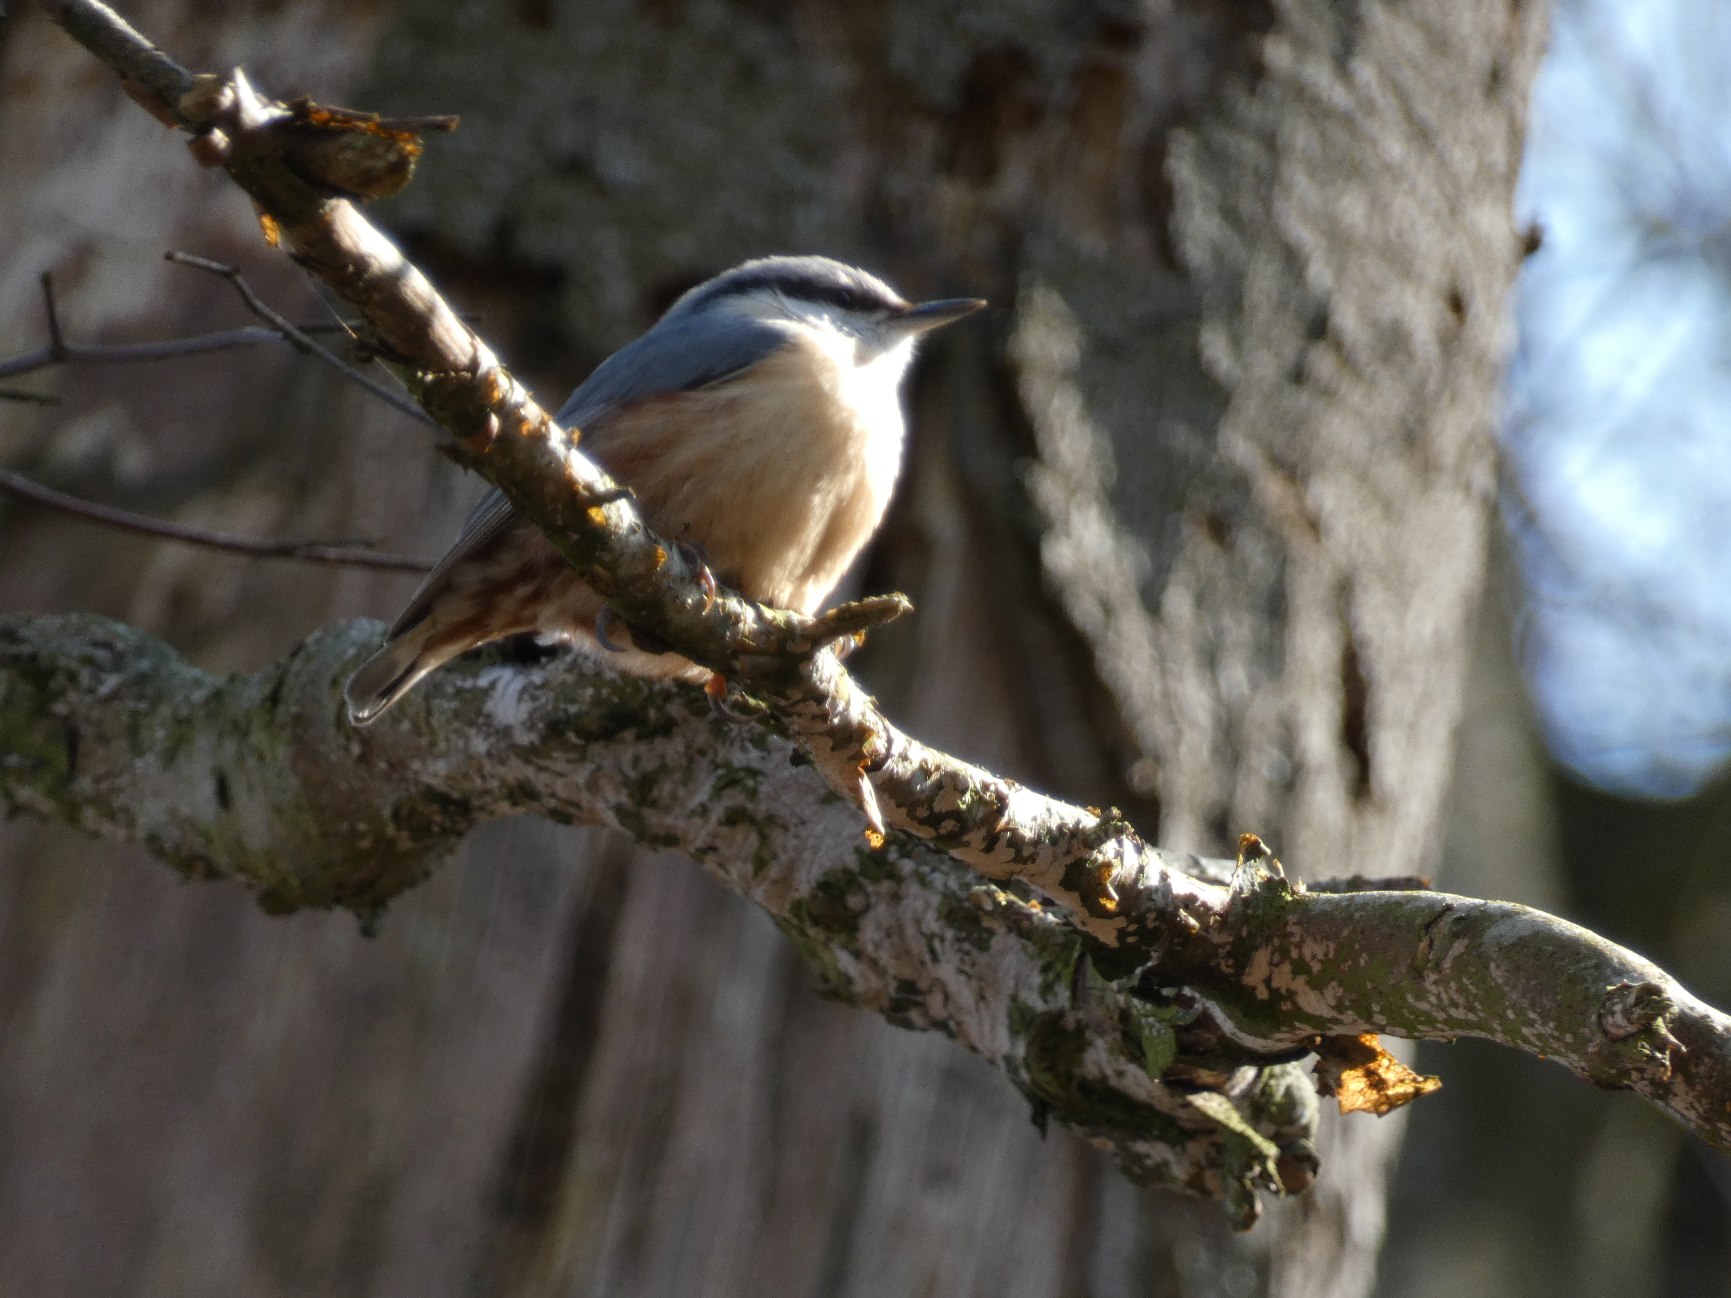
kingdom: Animalia
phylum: Chordata
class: Aves
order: Passeriformes
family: Sittidae
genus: Sitta
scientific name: Sitta europaea
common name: Spætmejse
